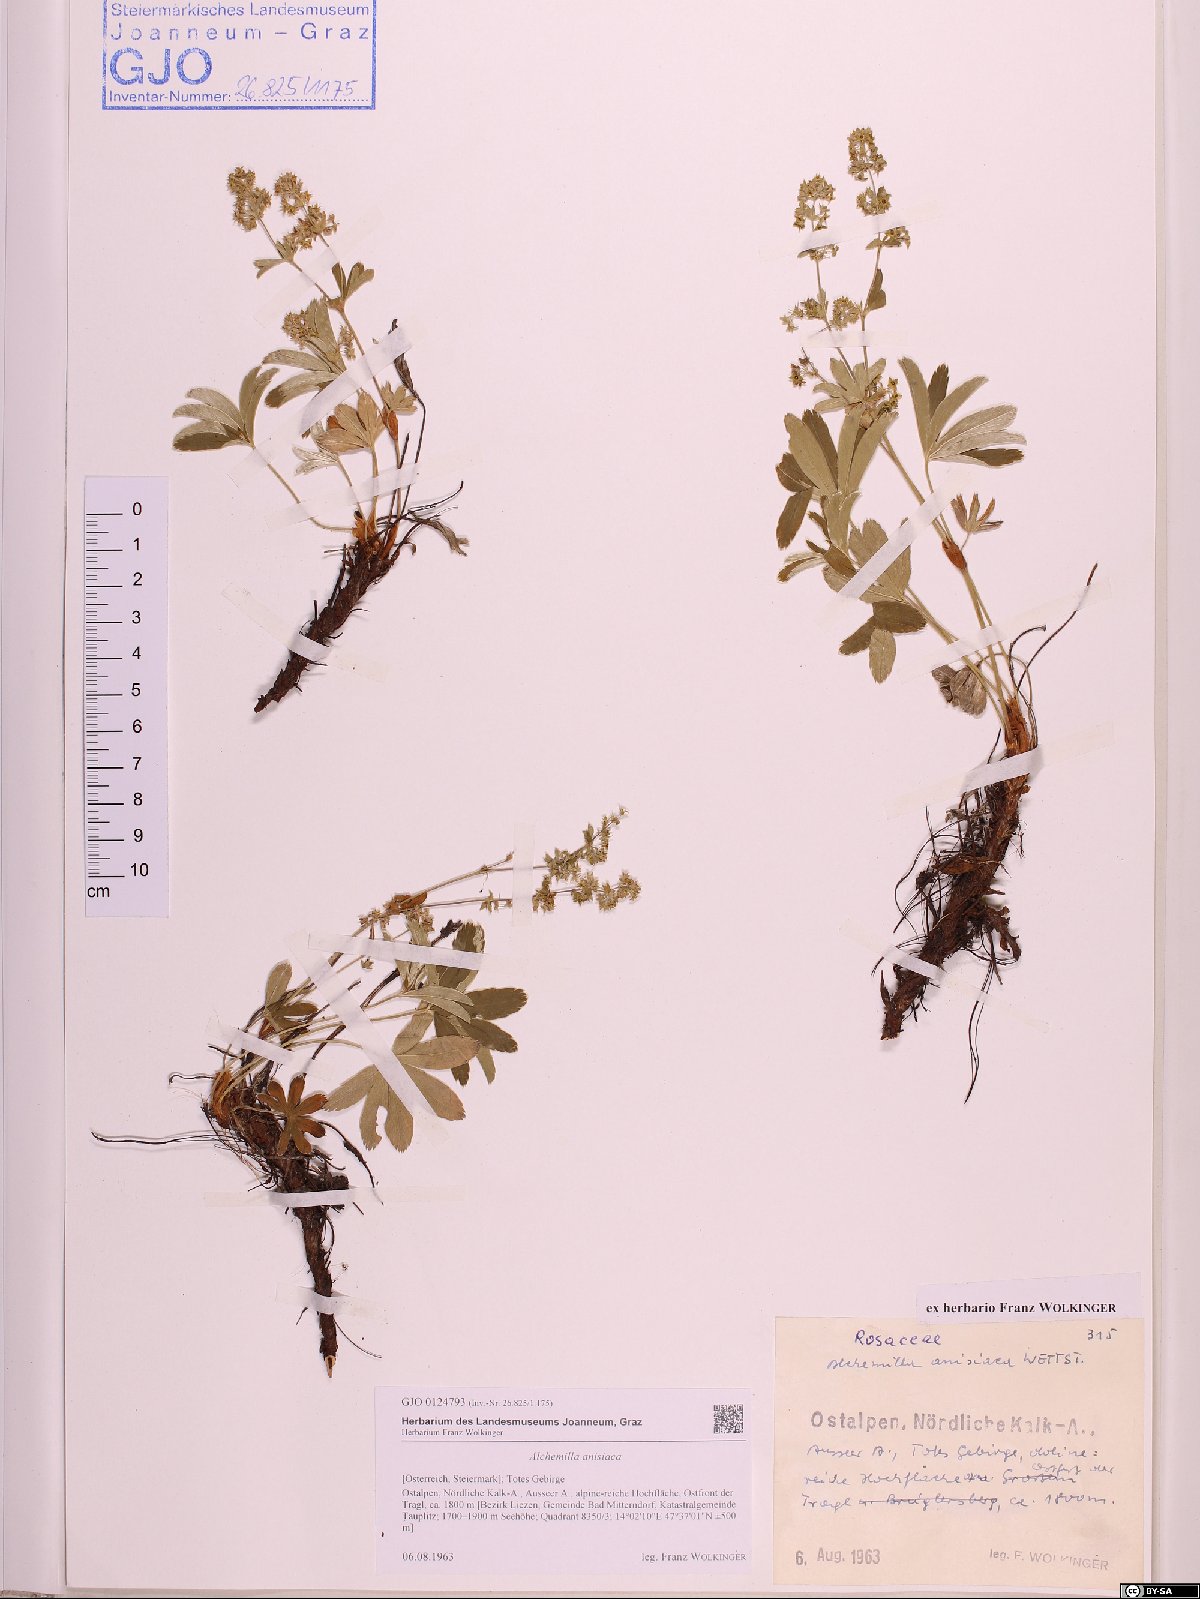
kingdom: Plantae
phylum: Tracheophyta
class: Magnoliopsida
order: Rosales
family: Rosaceae
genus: Alchemilla
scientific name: Alchemilla anisiaca
